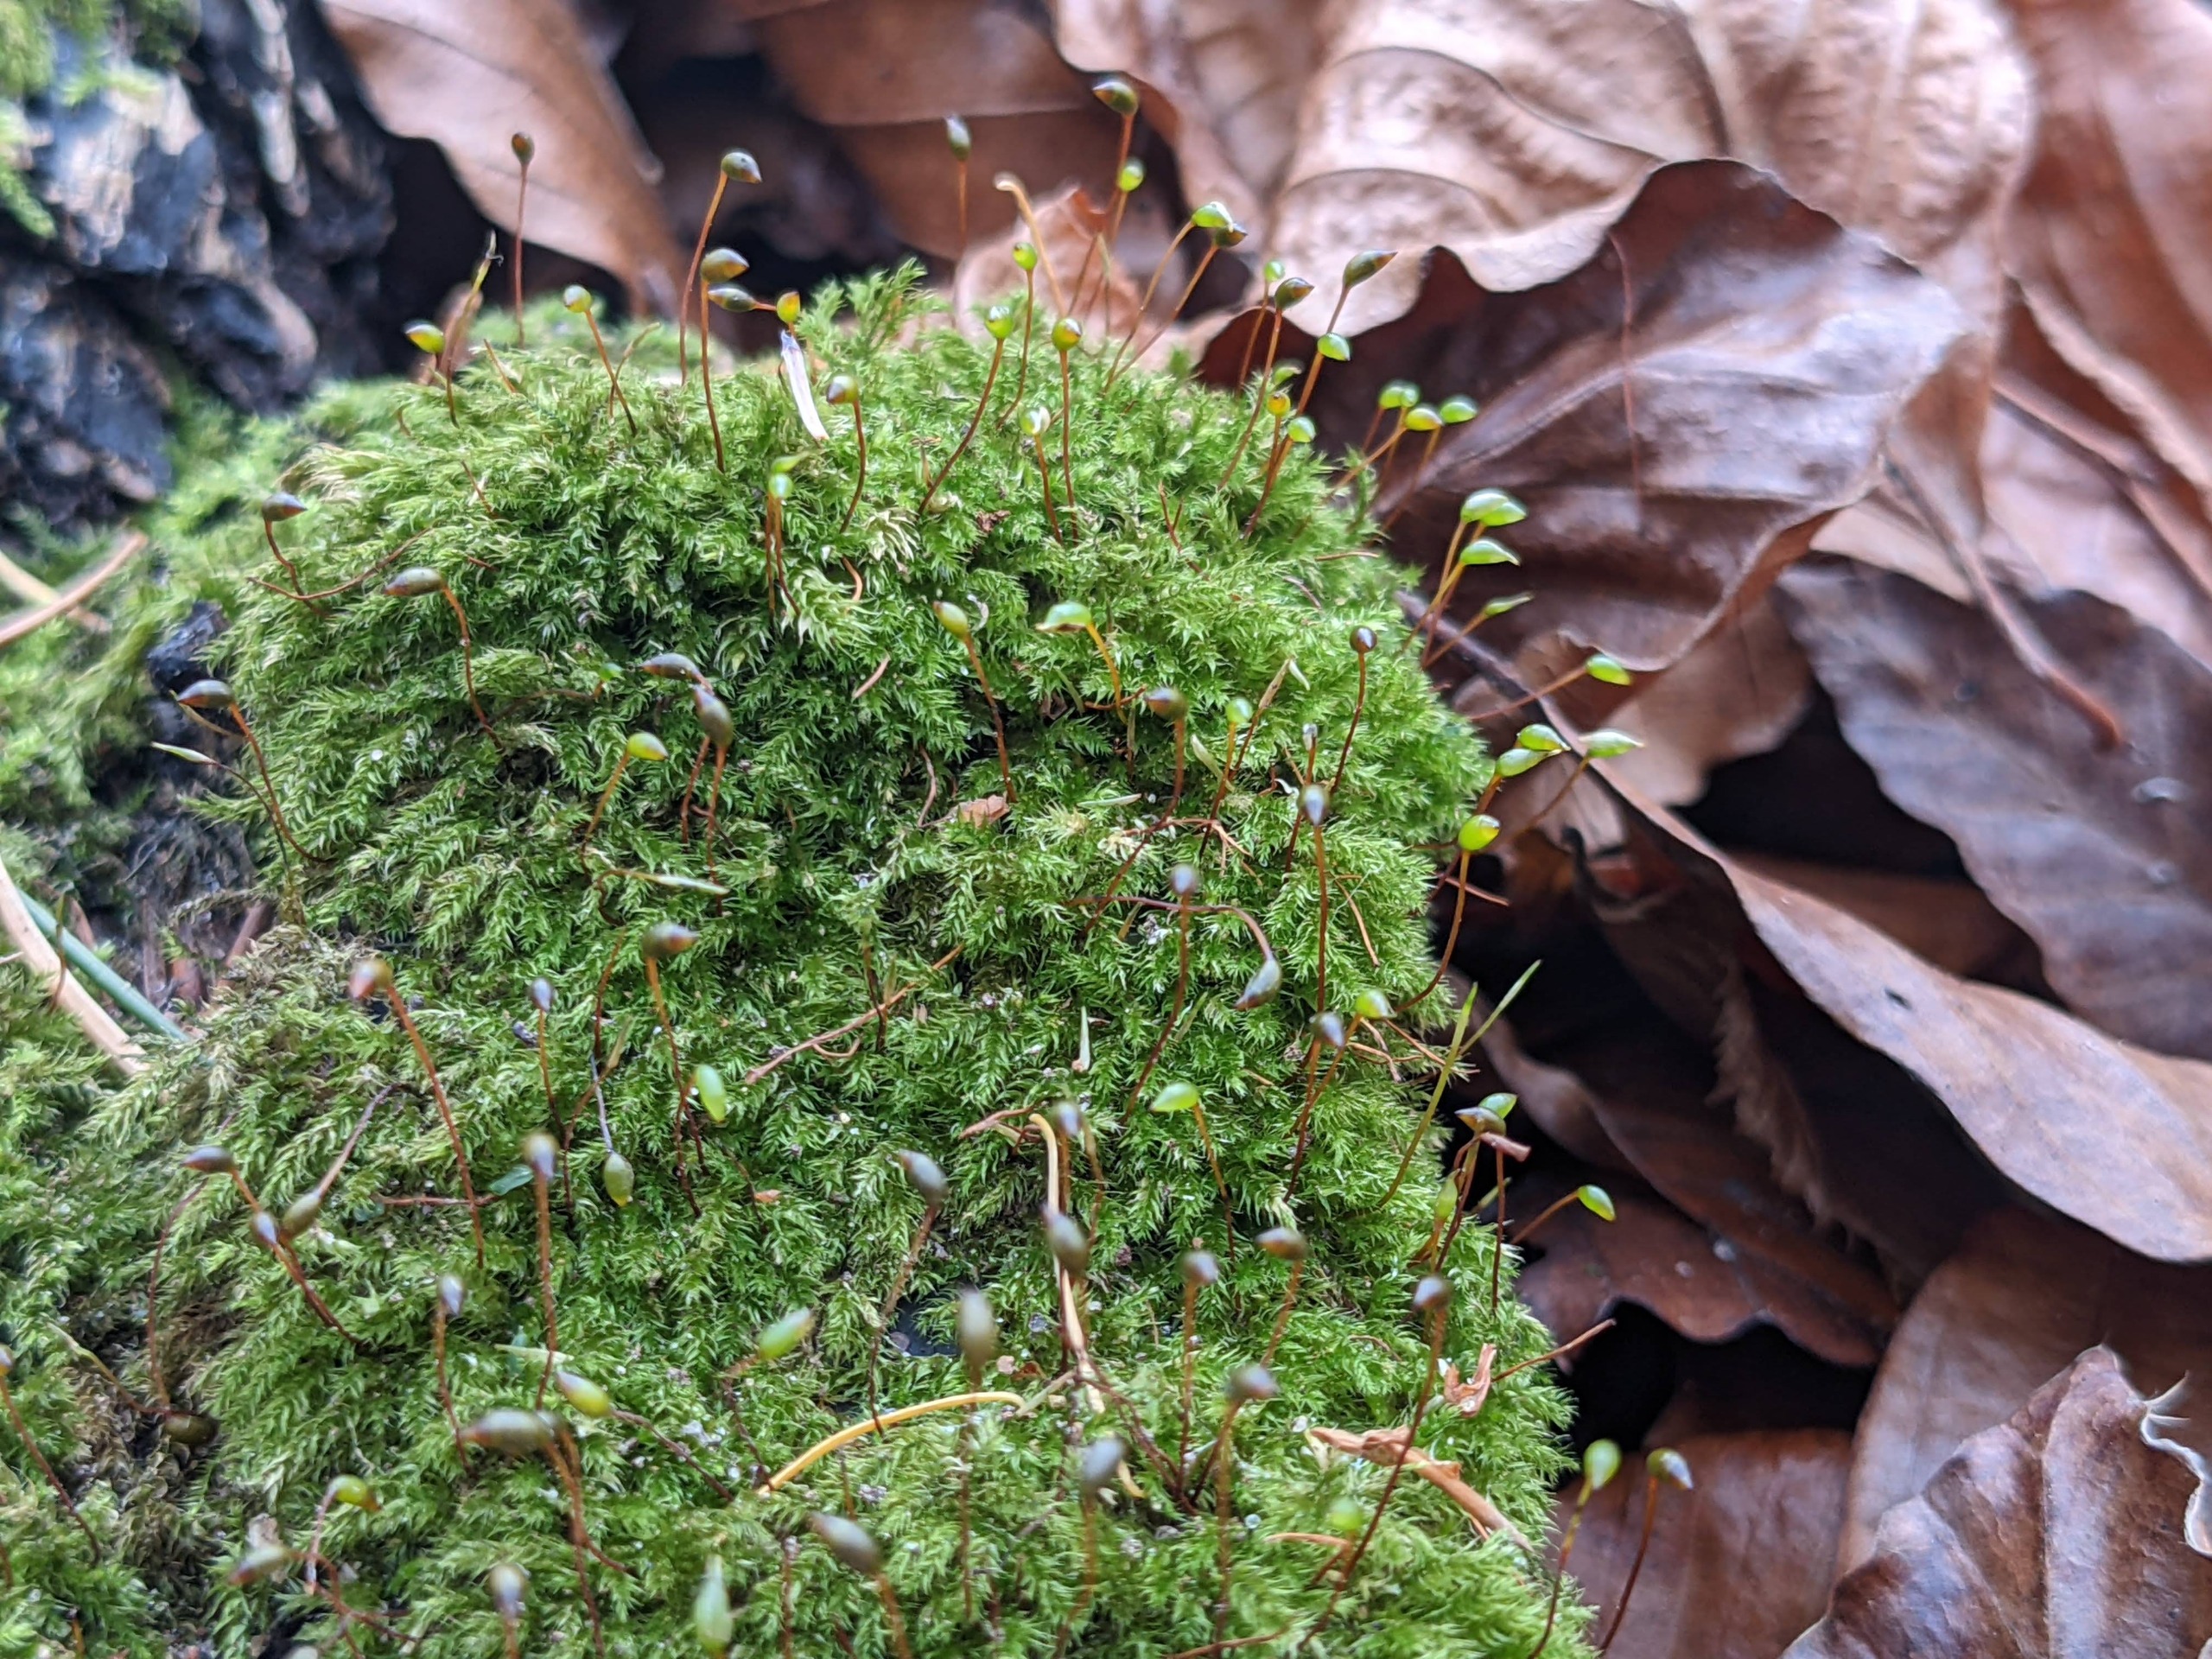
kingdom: Plantae
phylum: Bryophyta
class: Bryopsida
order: Hypnales
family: Brachytheciaceae
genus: Brachytheciastrum
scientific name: Brachytheciastrum velutinum
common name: Fløjls-kortkapsel
